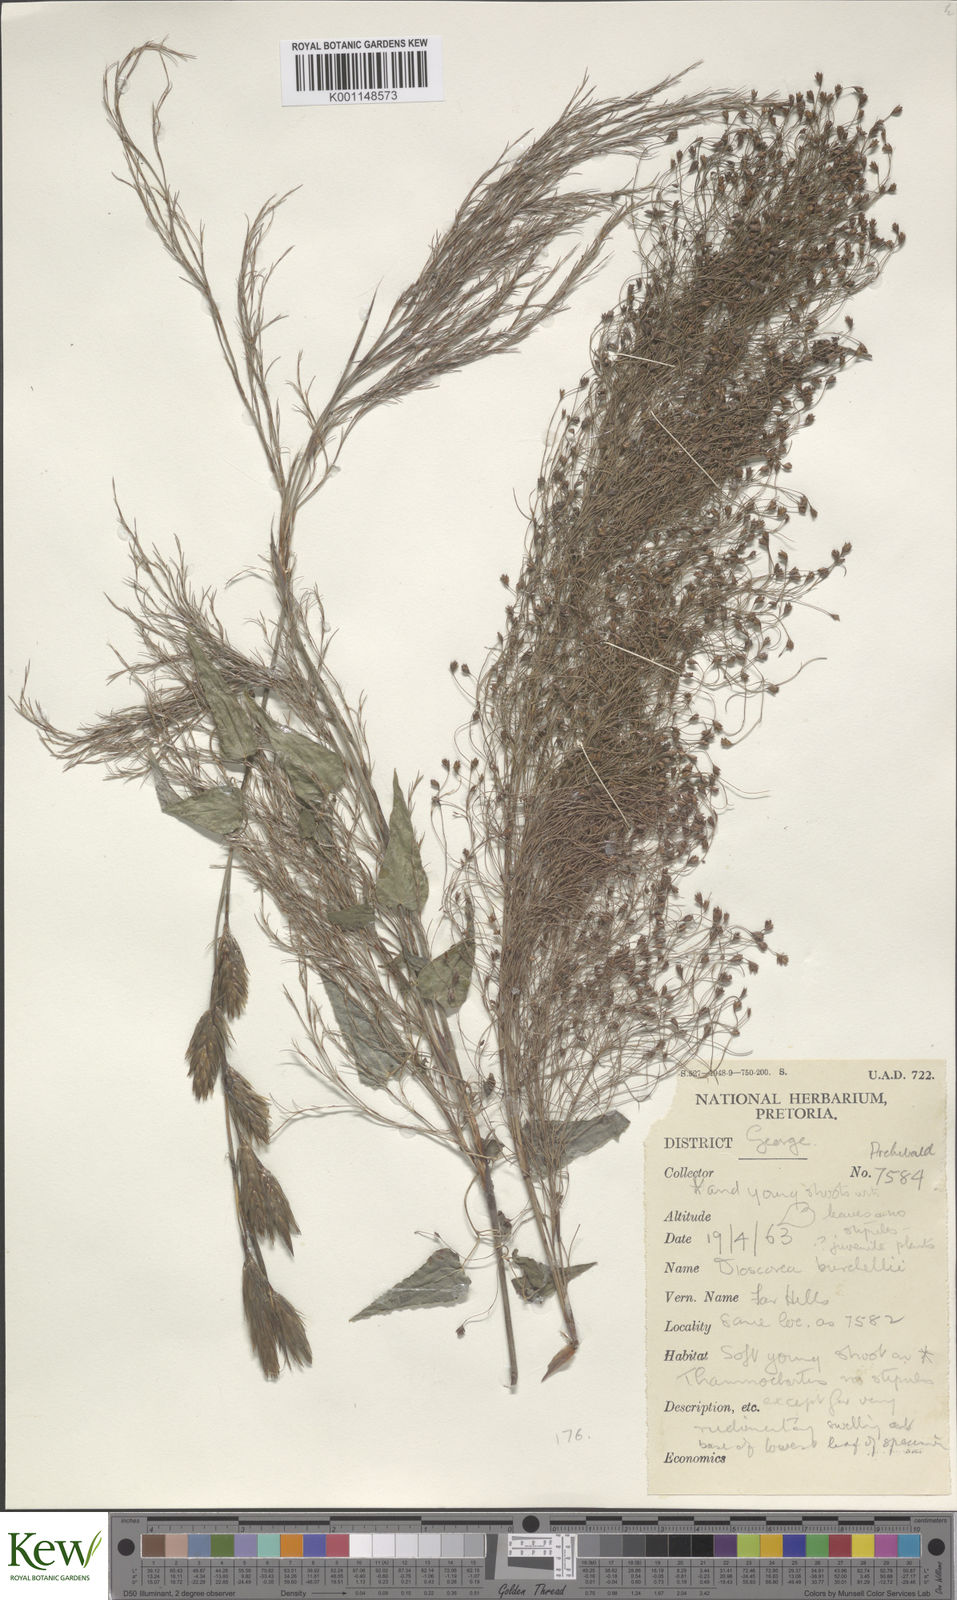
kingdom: Plantae
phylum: Tracheophyta
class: Liliopsida
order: Dioscoreales
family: Dioscoreaceae
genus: Dioscorea
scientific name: Dioscorea burchellii
